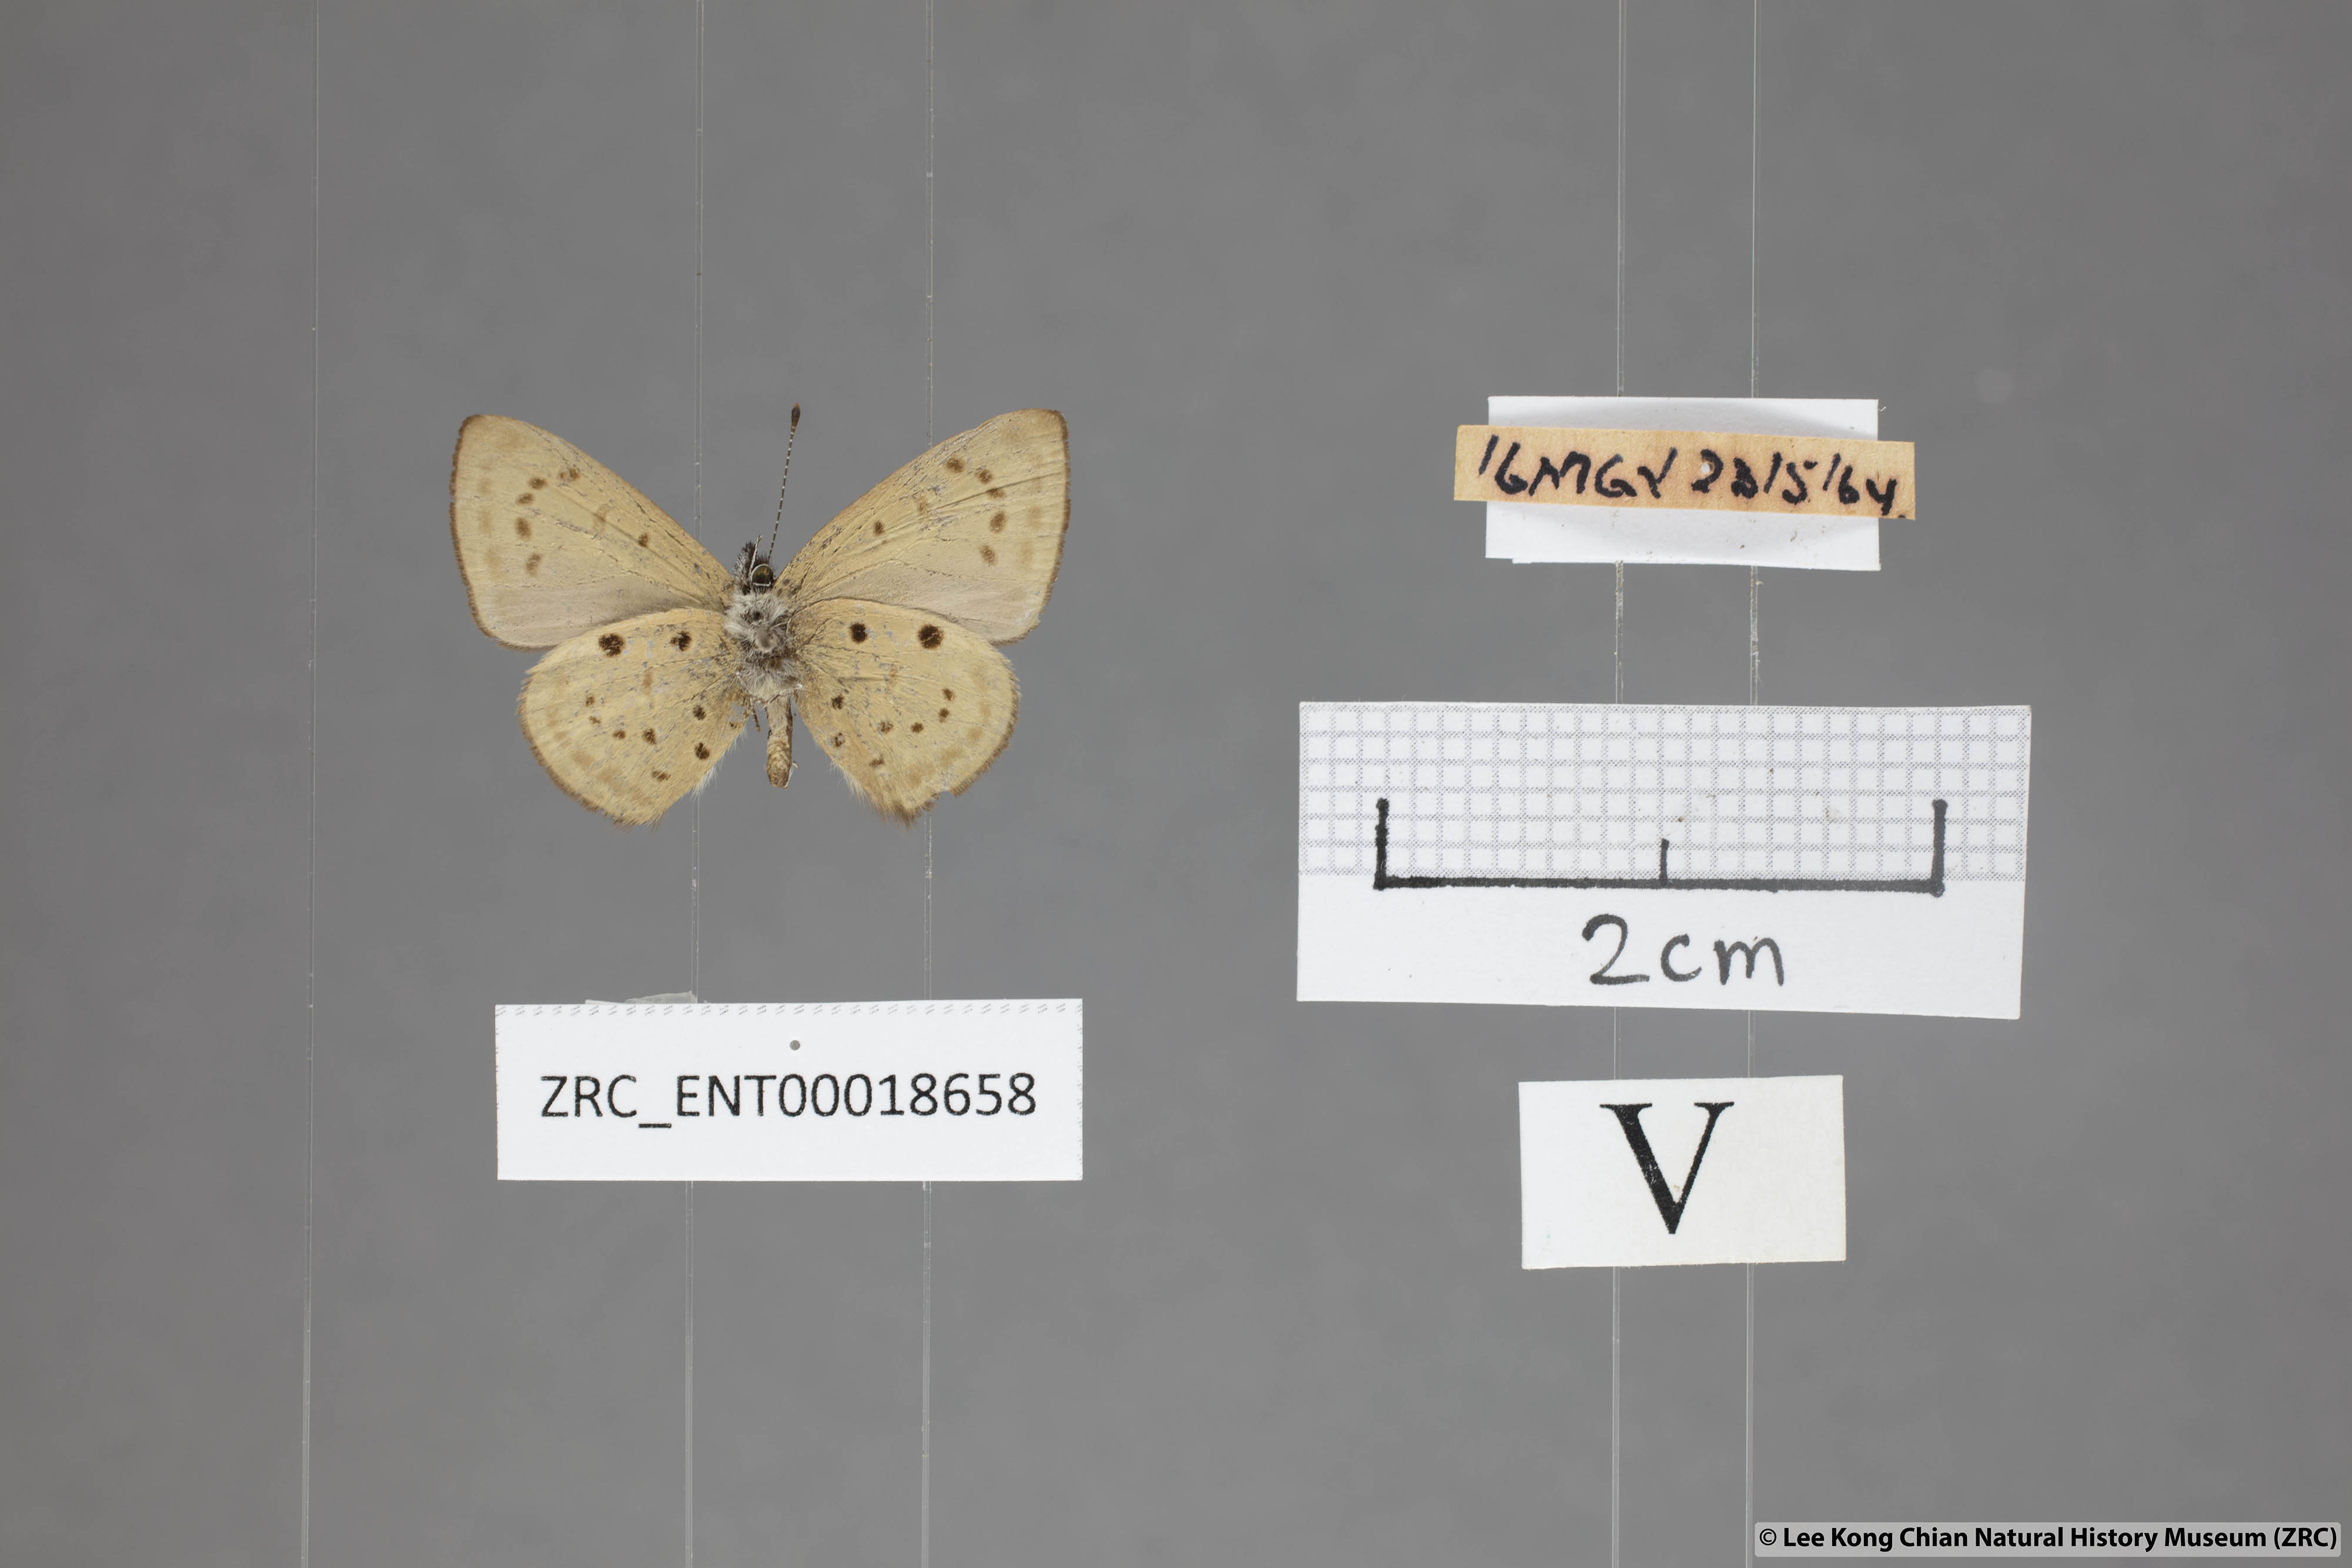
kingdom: Animalia
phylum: Arthropoda
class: Insecta
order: Lepidoptera
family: Lycaenidae
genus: Una
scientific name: Una usta
